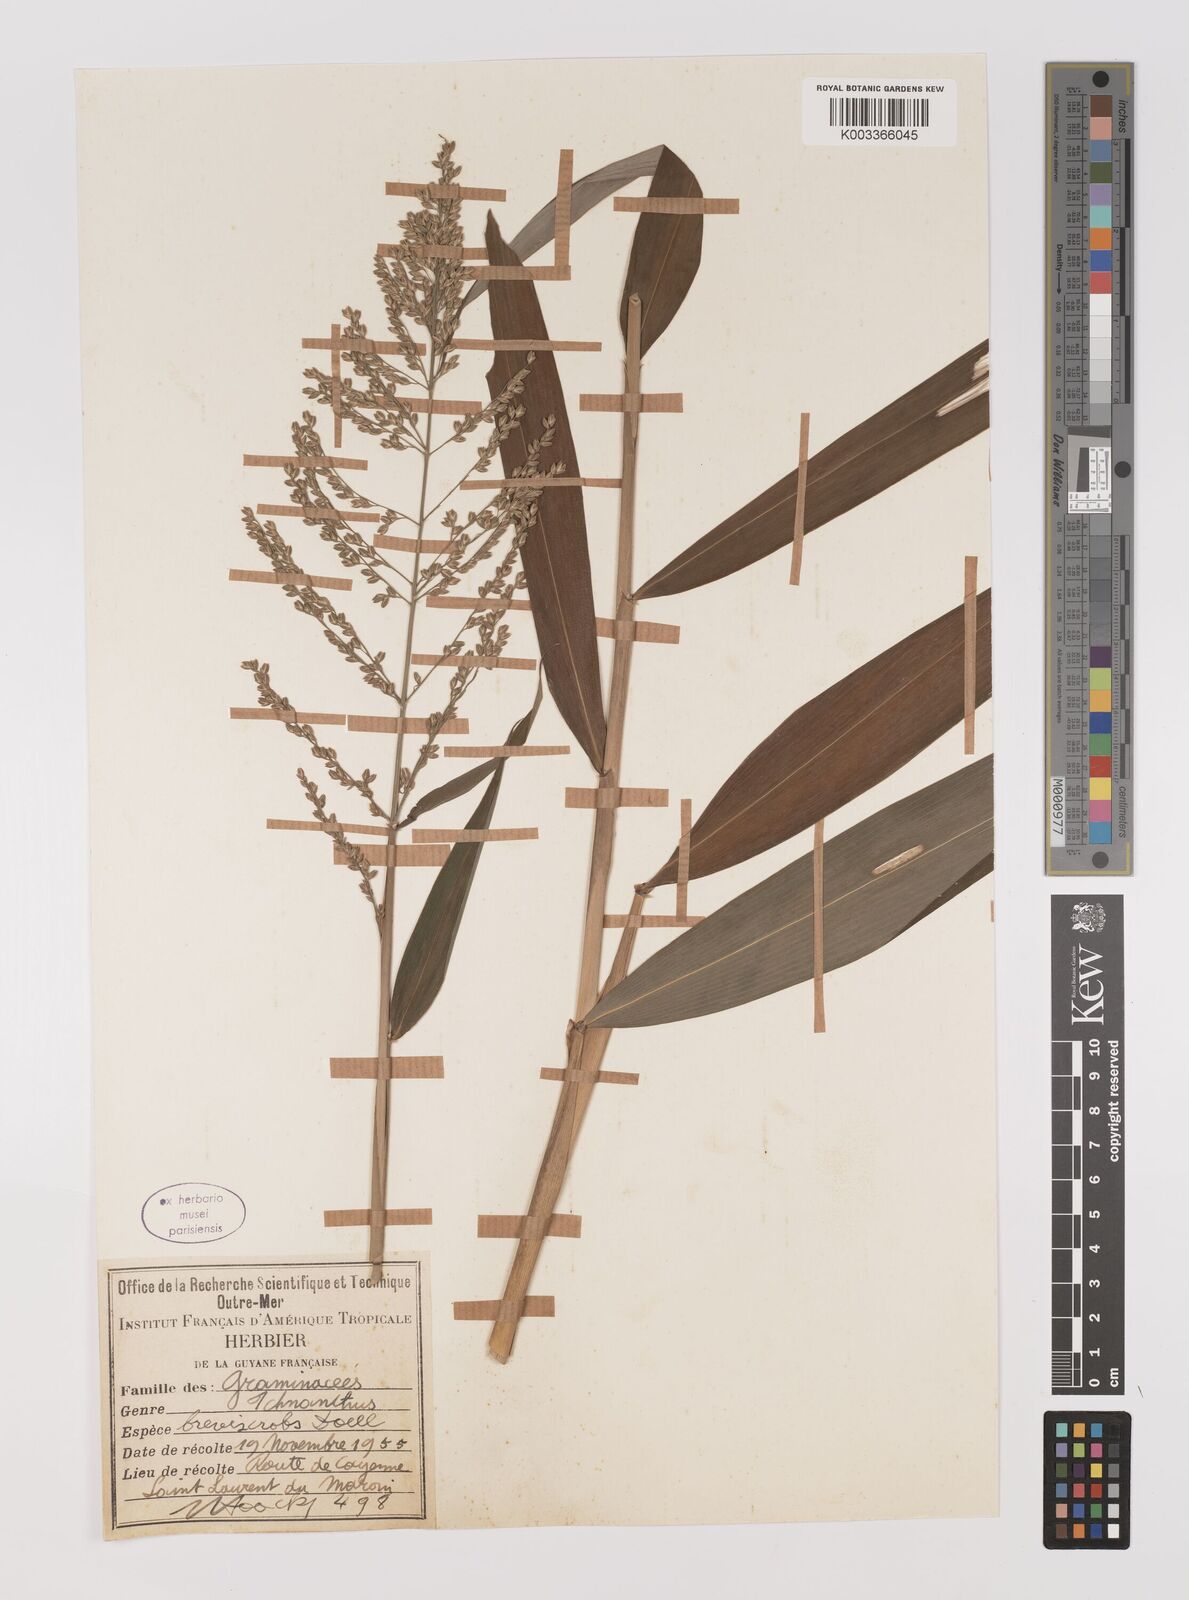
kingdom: Plantae
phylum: Tracheophyta
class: Liliopsida
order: Poales
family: Poaceae
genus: Ichnanthus
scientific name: Ichnanthus breviscrobs
